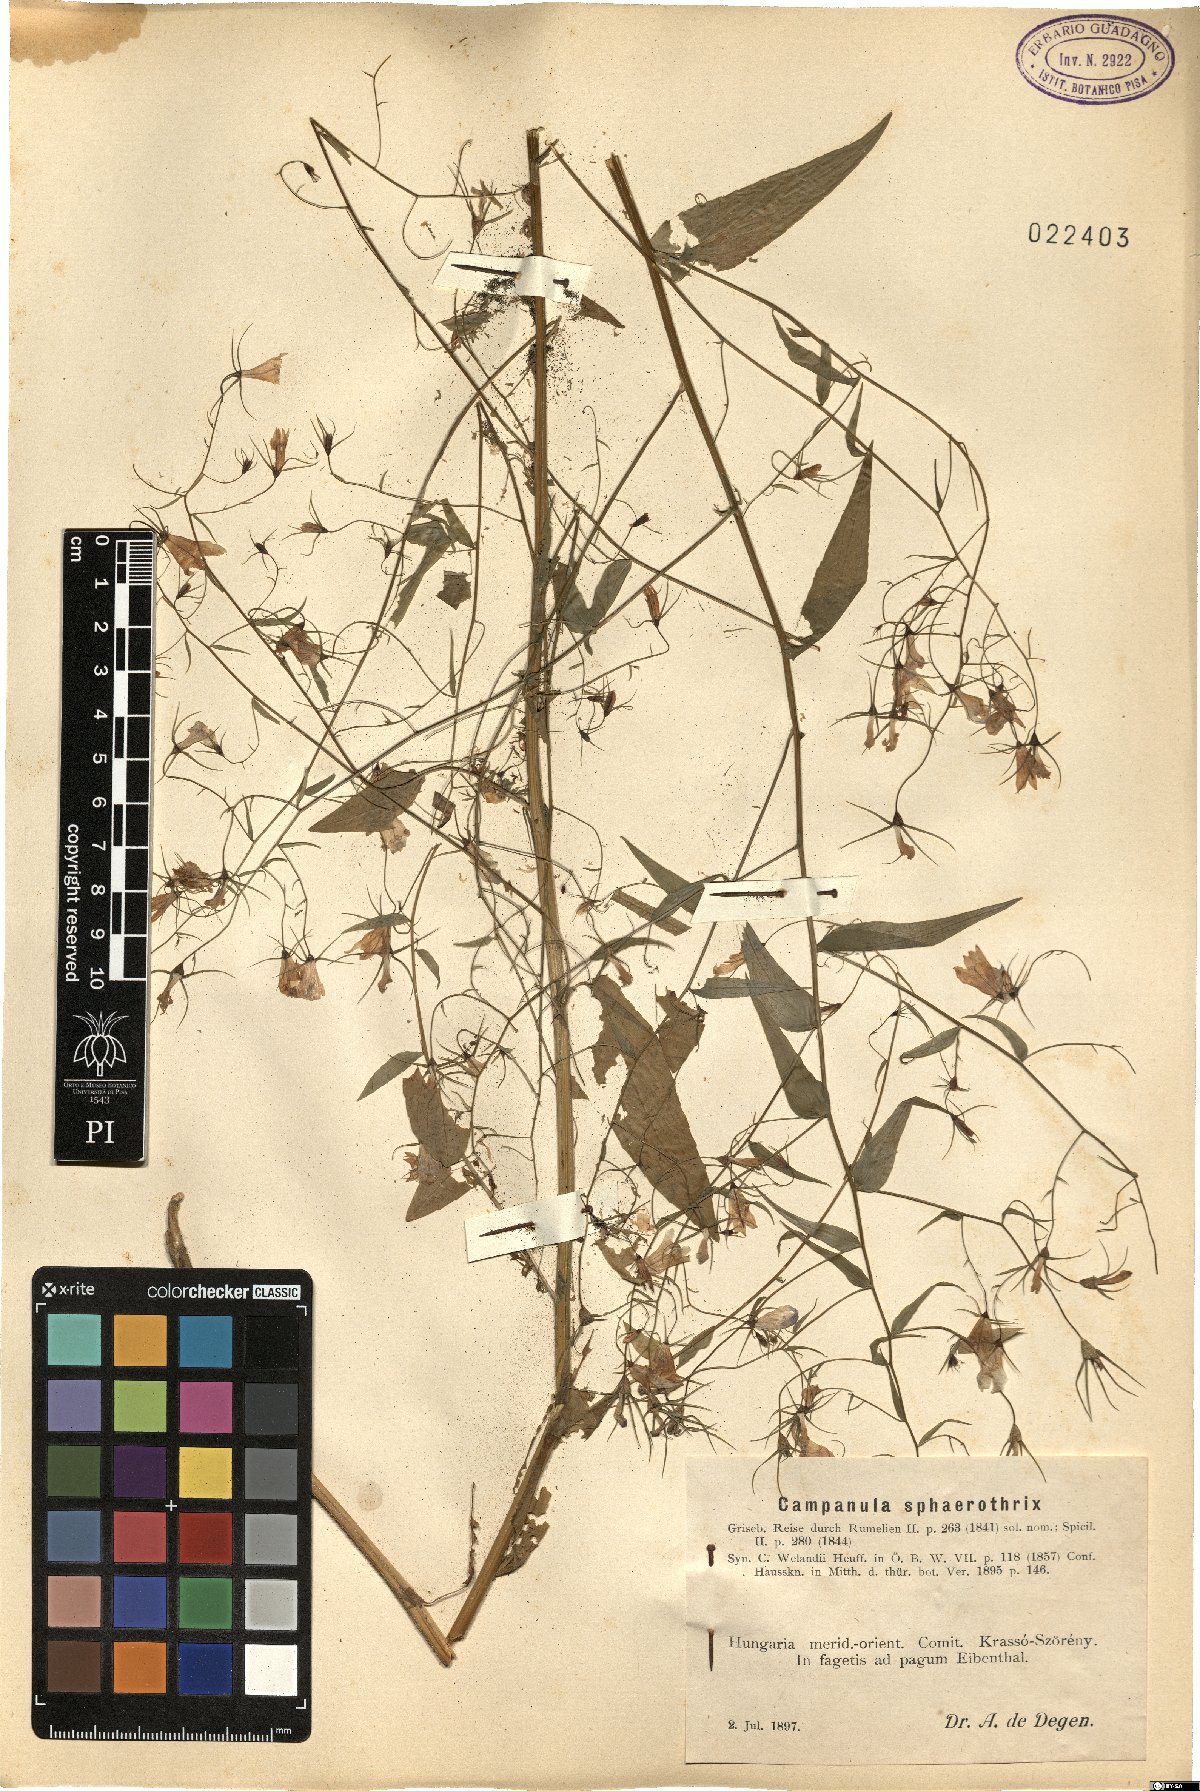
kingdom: Plantae
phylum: Tracheophyta
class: Magnoliopsida
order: Asterales
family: Campanulaceae
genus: Campanula
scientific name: Campanula sparsa
